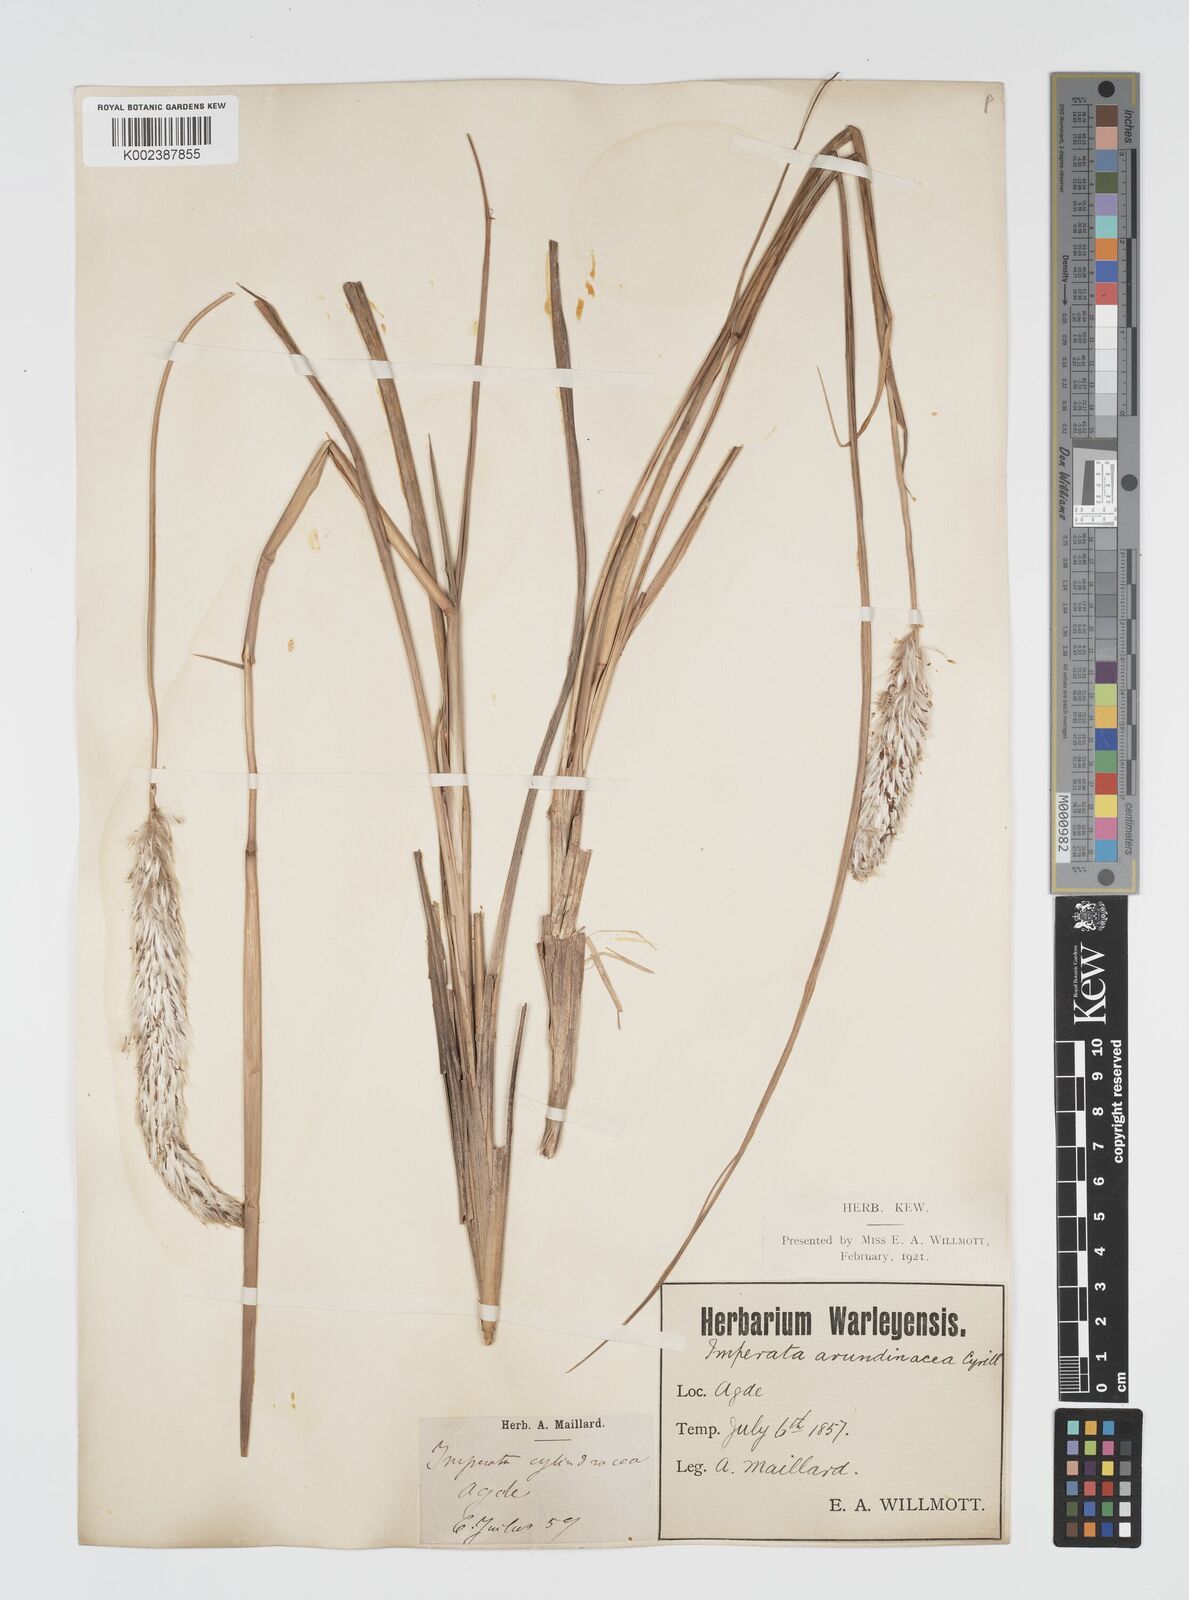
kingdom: Plantae
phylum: Tracheophyta
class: Liliopsida
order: Poales
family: Poaceae
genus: Imperata
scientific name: Imperata cylindrica
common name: Cogongrass
